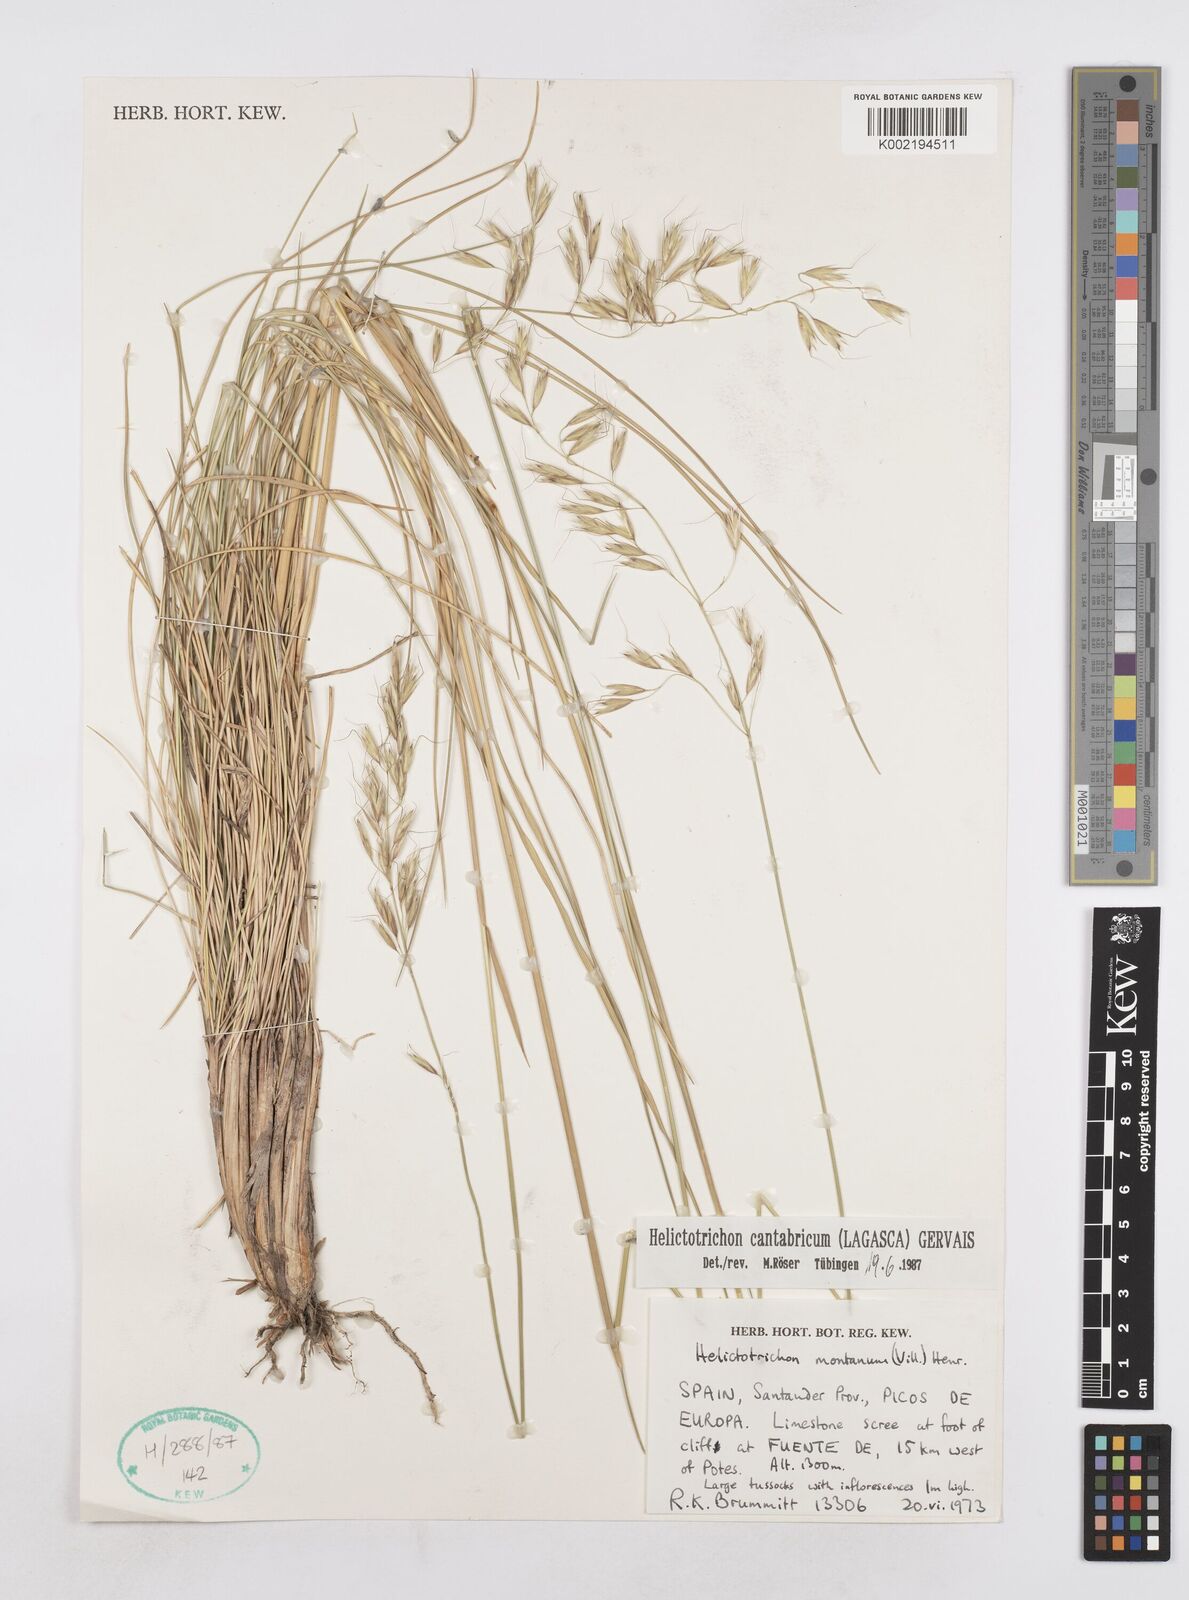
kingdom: Plantae
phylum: Tracheophyta
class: Liliopsida
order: Poales
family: Poaceae
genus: Helictotrichon
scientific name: Helictotrichon cantabricum
